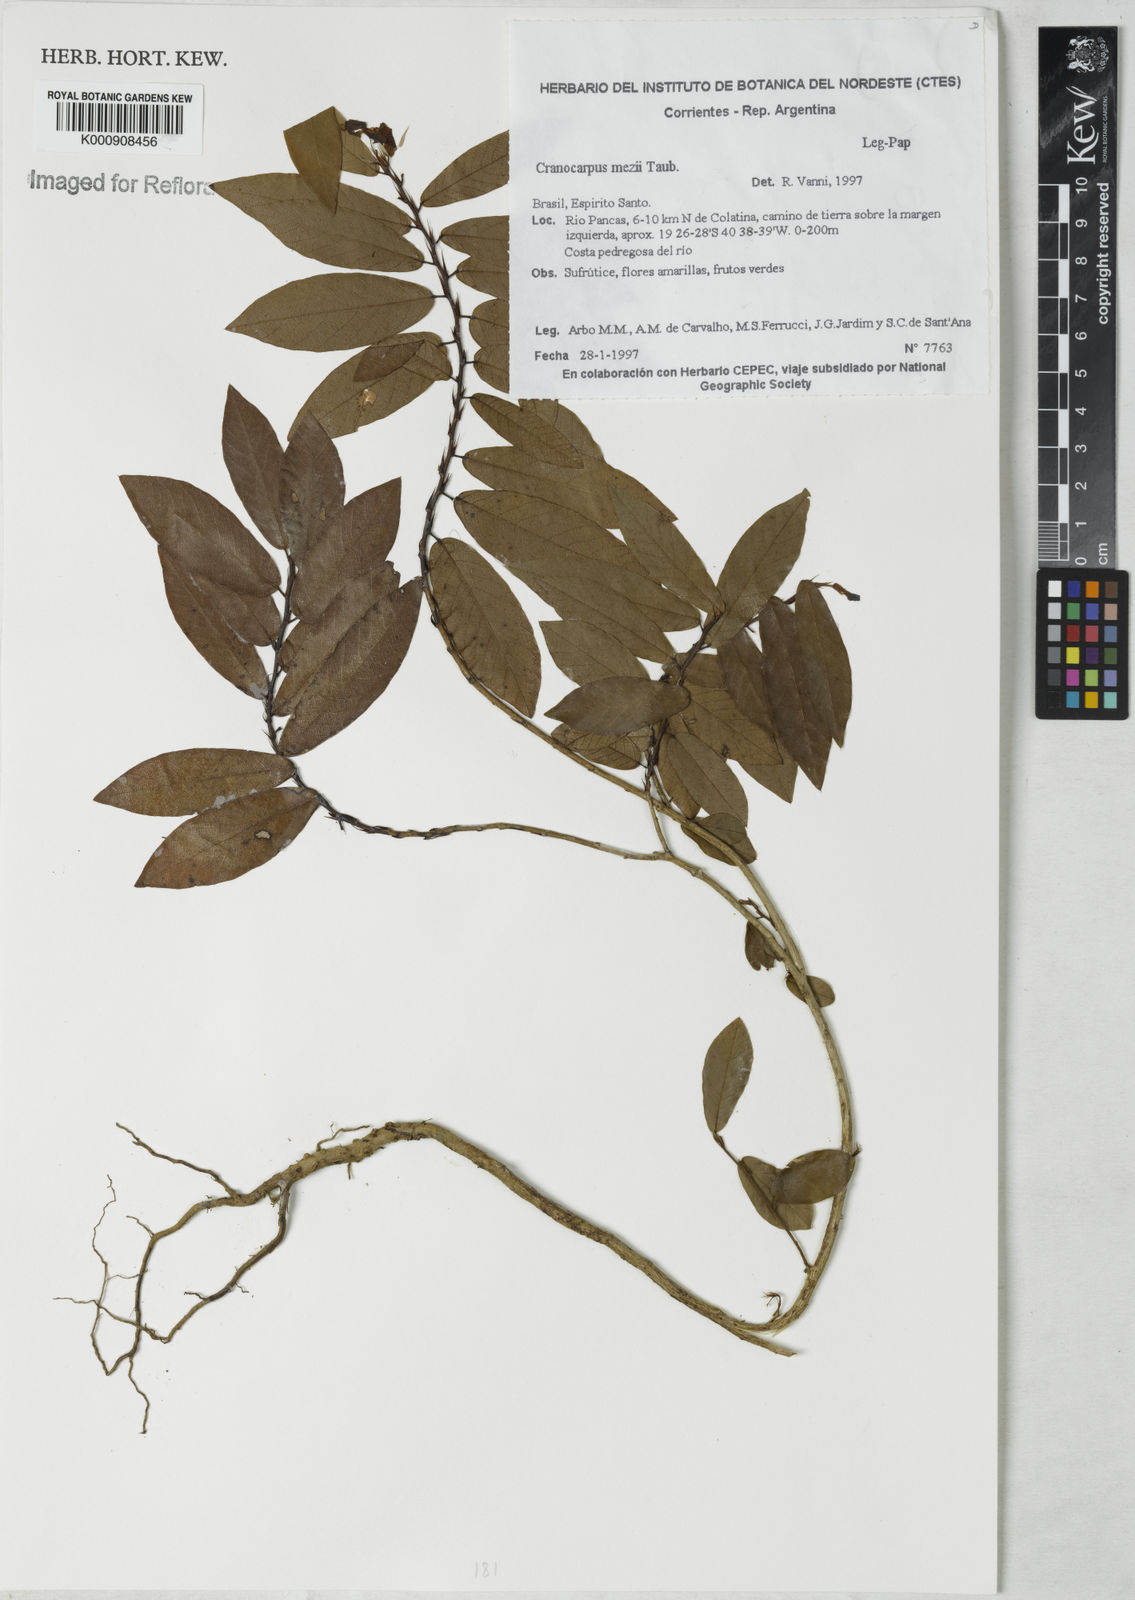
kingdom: Plantae
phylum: Tracheophyta
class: Magnoliopsida
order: Fabales
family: Fabaceae
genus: Cranocarpus
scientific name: Cranocarpus mezii
